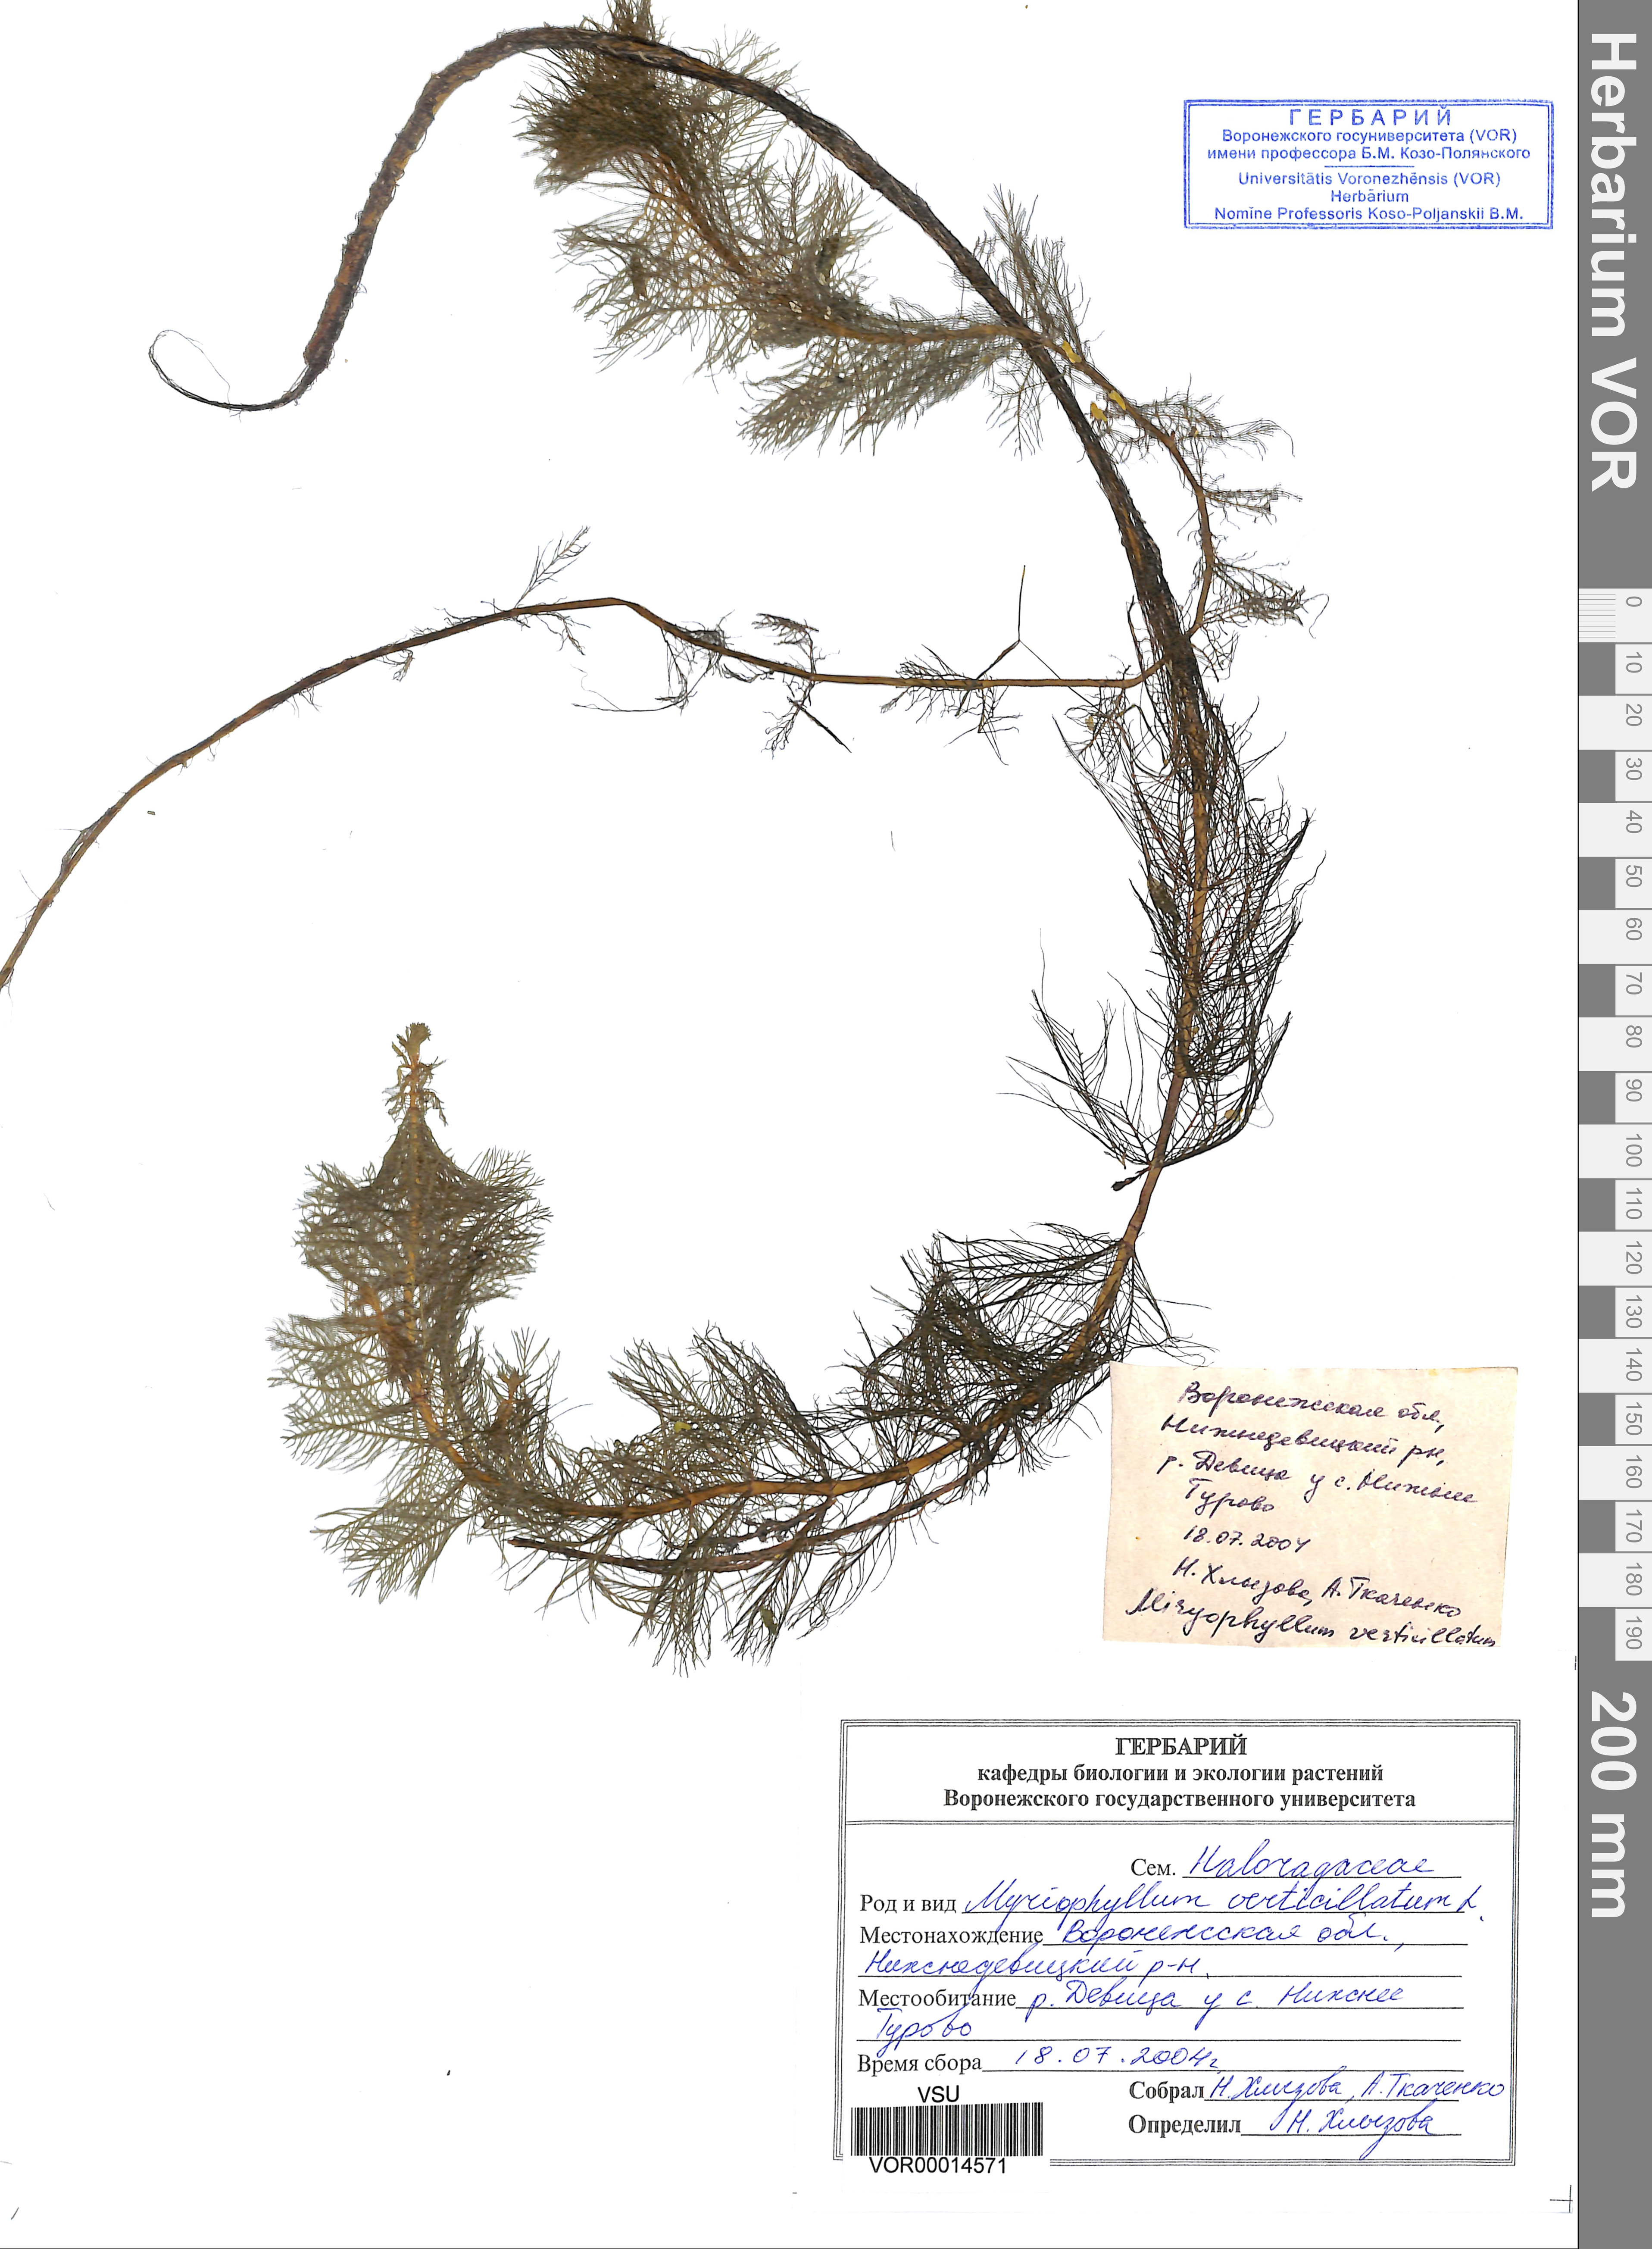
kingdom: Plantae
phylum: Tracheophyta
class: Magnoliopsida
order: Saxifragales
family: Haloragaceae
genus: Myriophyllum
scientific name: Myriophyllum verticillatum
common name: Whorled water-milfoil
